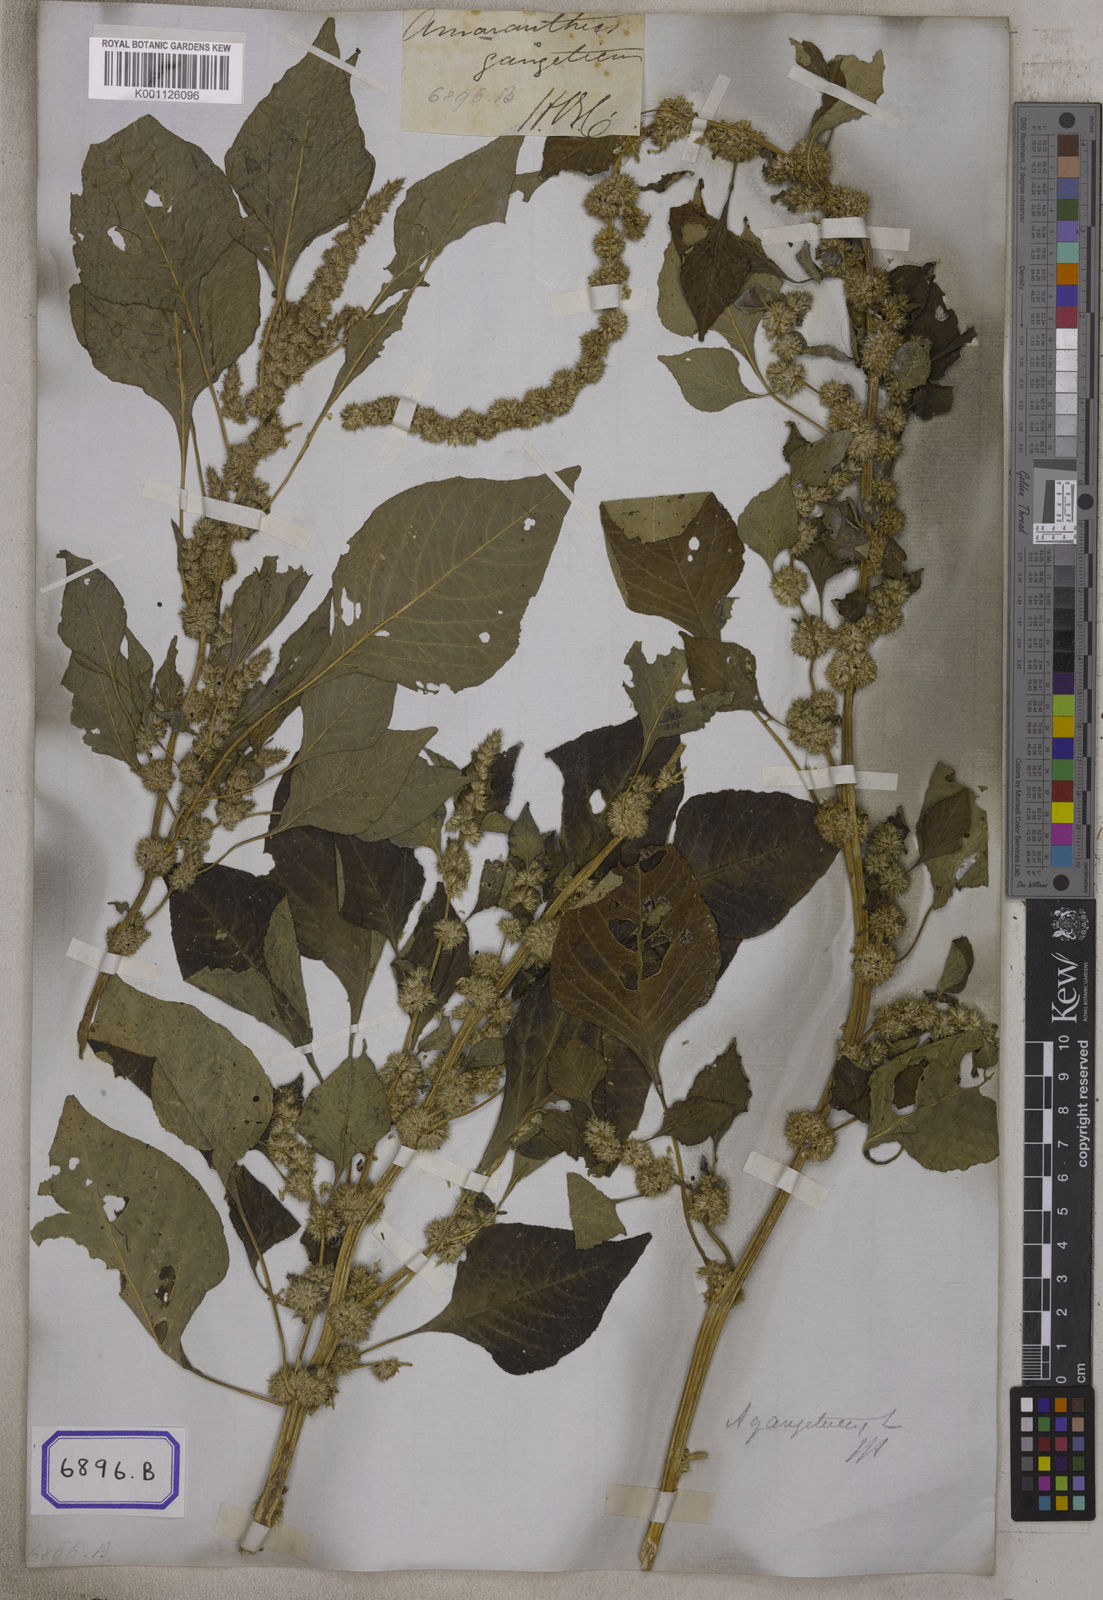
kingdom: Plantae
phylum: Tracheophyta
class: Magnoliopsida
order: Caryophyllales
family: Amaranthaceae
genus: Amaranthus
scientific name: Amaranthus blitum
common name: Purple amaranth
